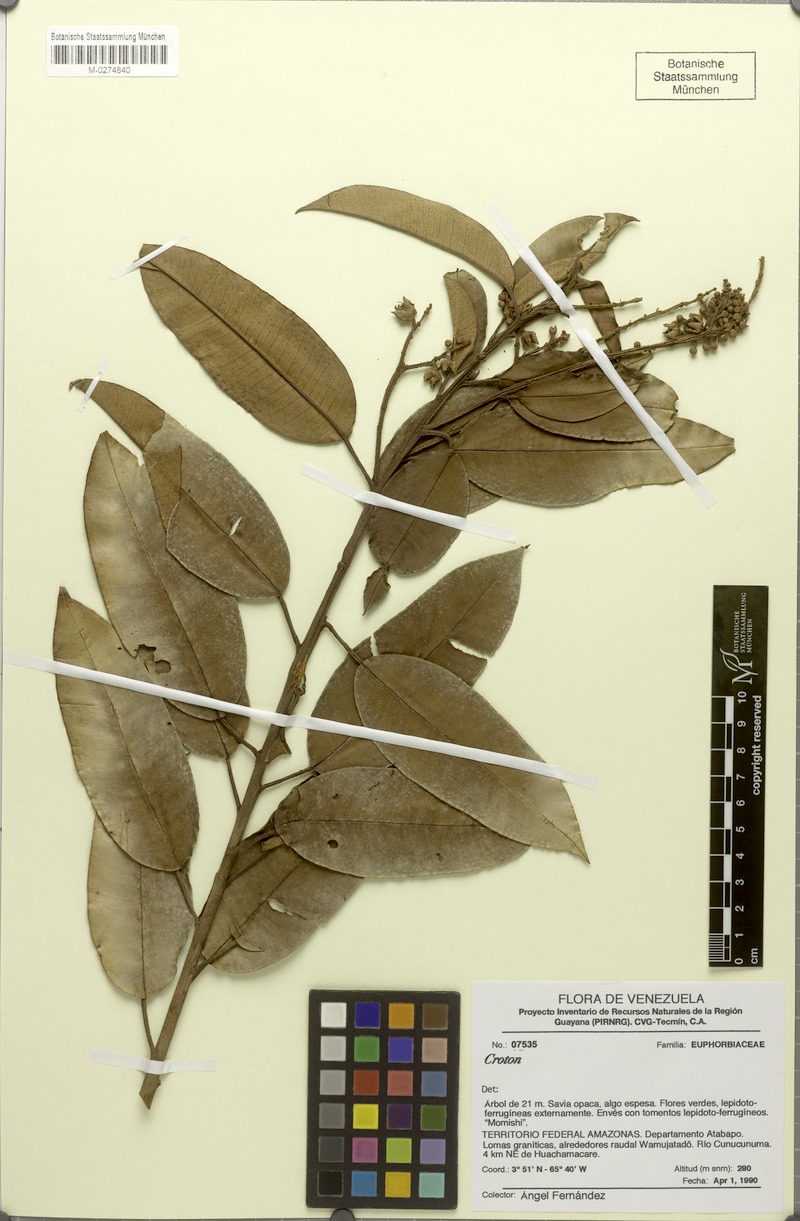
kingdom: Plantae
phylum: Tracheophyta
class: Magnoliopsida
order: Malpighiales
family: Euphorbiaceae
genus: Croton
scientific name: Croton fernandezii
